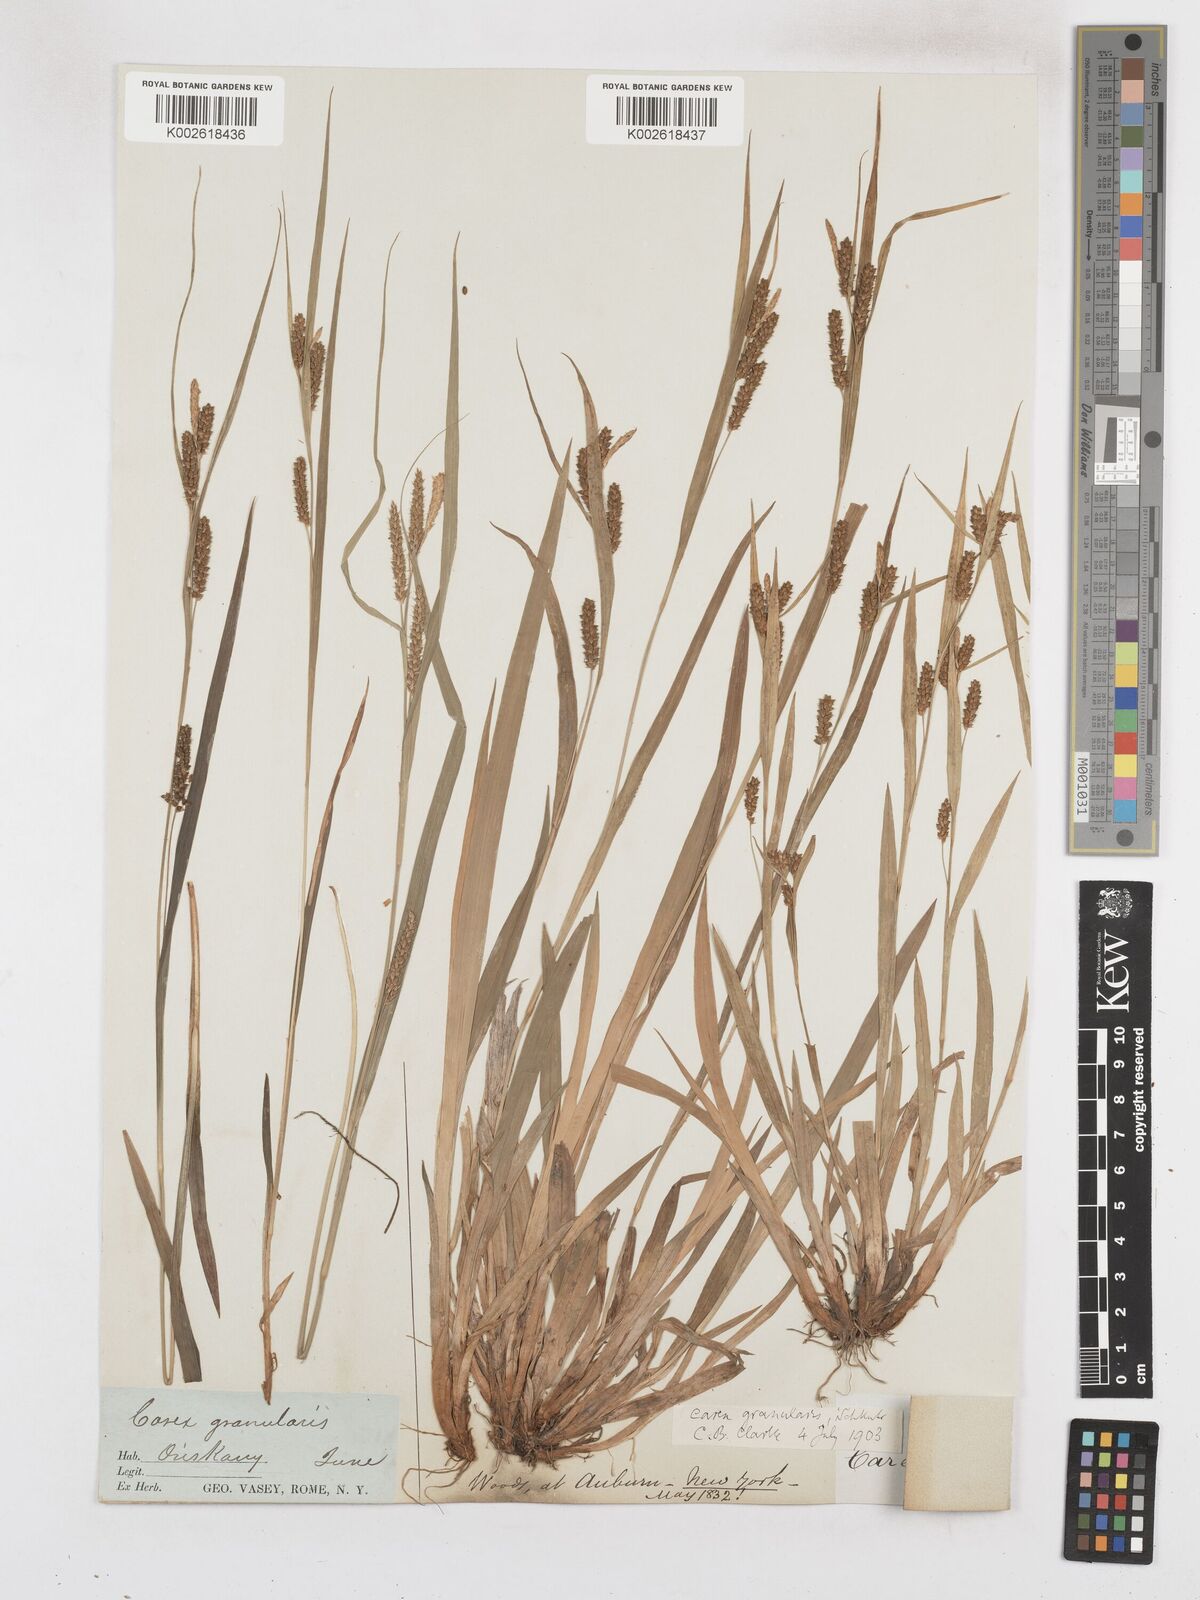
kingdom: Plantae
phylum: Tracheophyta
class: Liliopsida
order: Poales
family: Cyperaceae
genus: Carex
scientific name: Carex livida
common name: Livid sedge
